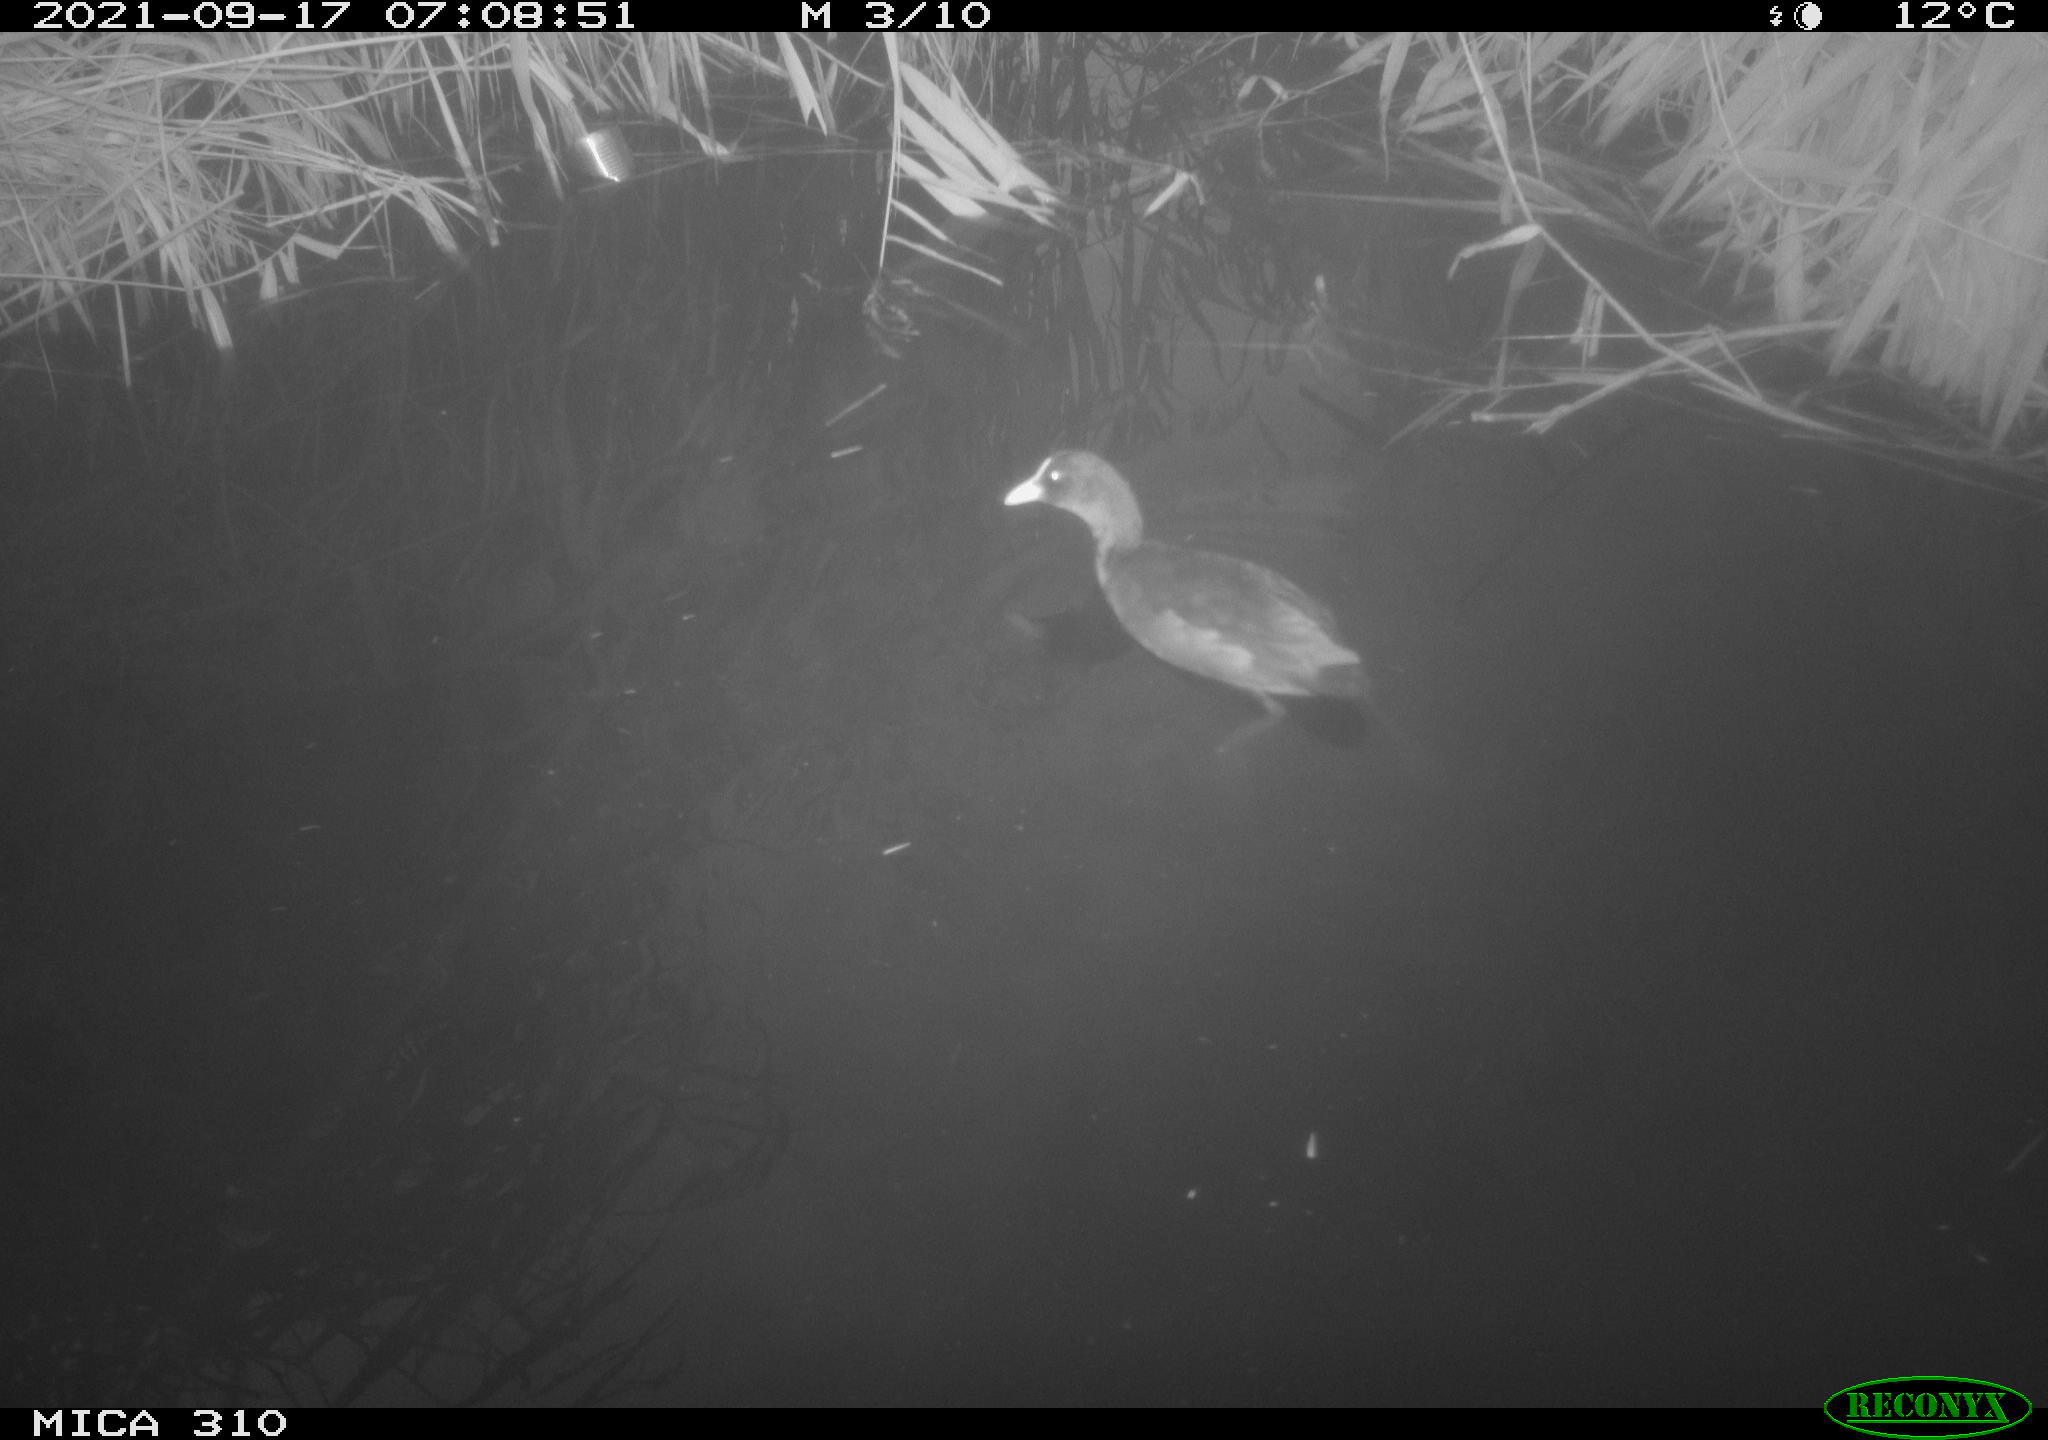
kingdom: Animalia
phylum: Chordata
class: Aves
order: Gruiformes
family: Rallidae
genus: Gallinula
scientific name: Gallinula chloropus
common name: Common moorhen
